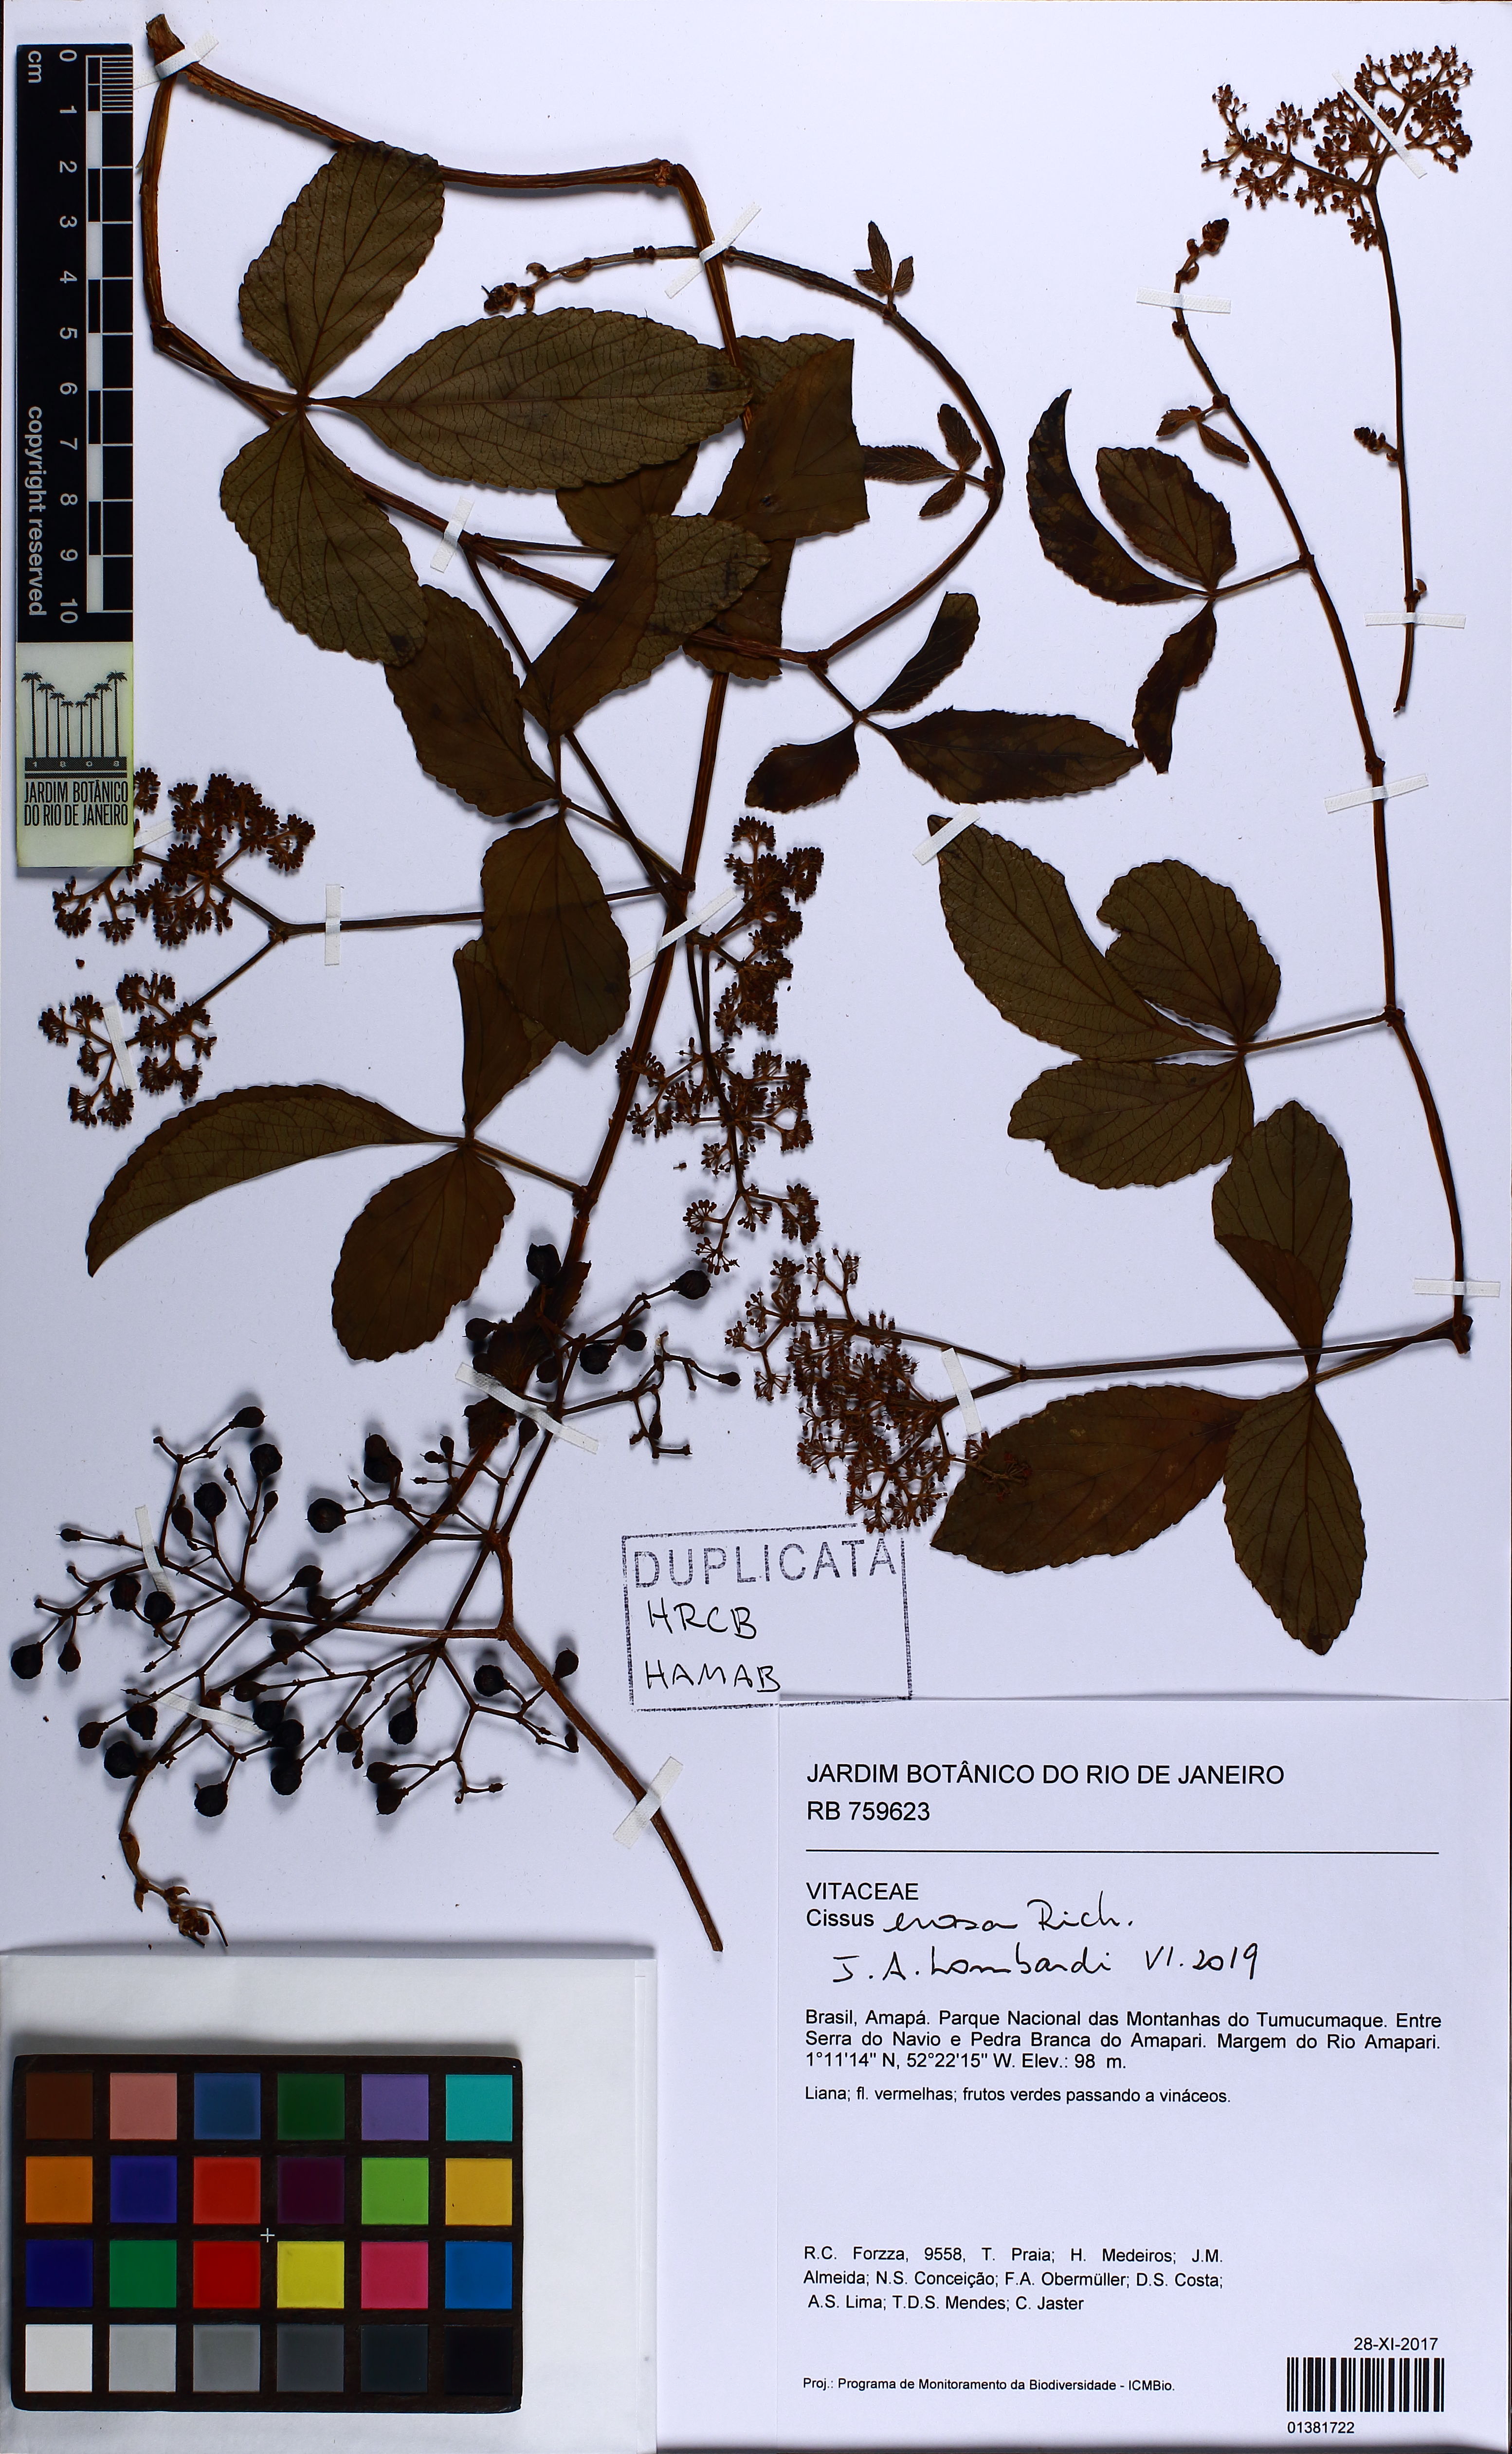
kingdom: Plantae
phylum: Tracheophyta
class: Magnoliopsida
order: Vitales
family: Vitaceae
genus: Cissus
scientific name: Cissus erosa
